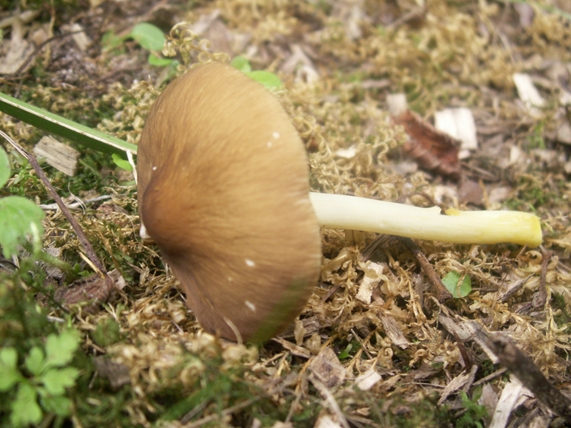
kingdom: Fungi
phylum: Basidiomycota
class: Agaricomycetes
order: Agaricales
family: Pluteaceae
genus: Pluteus
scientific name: Pluteus romellii
